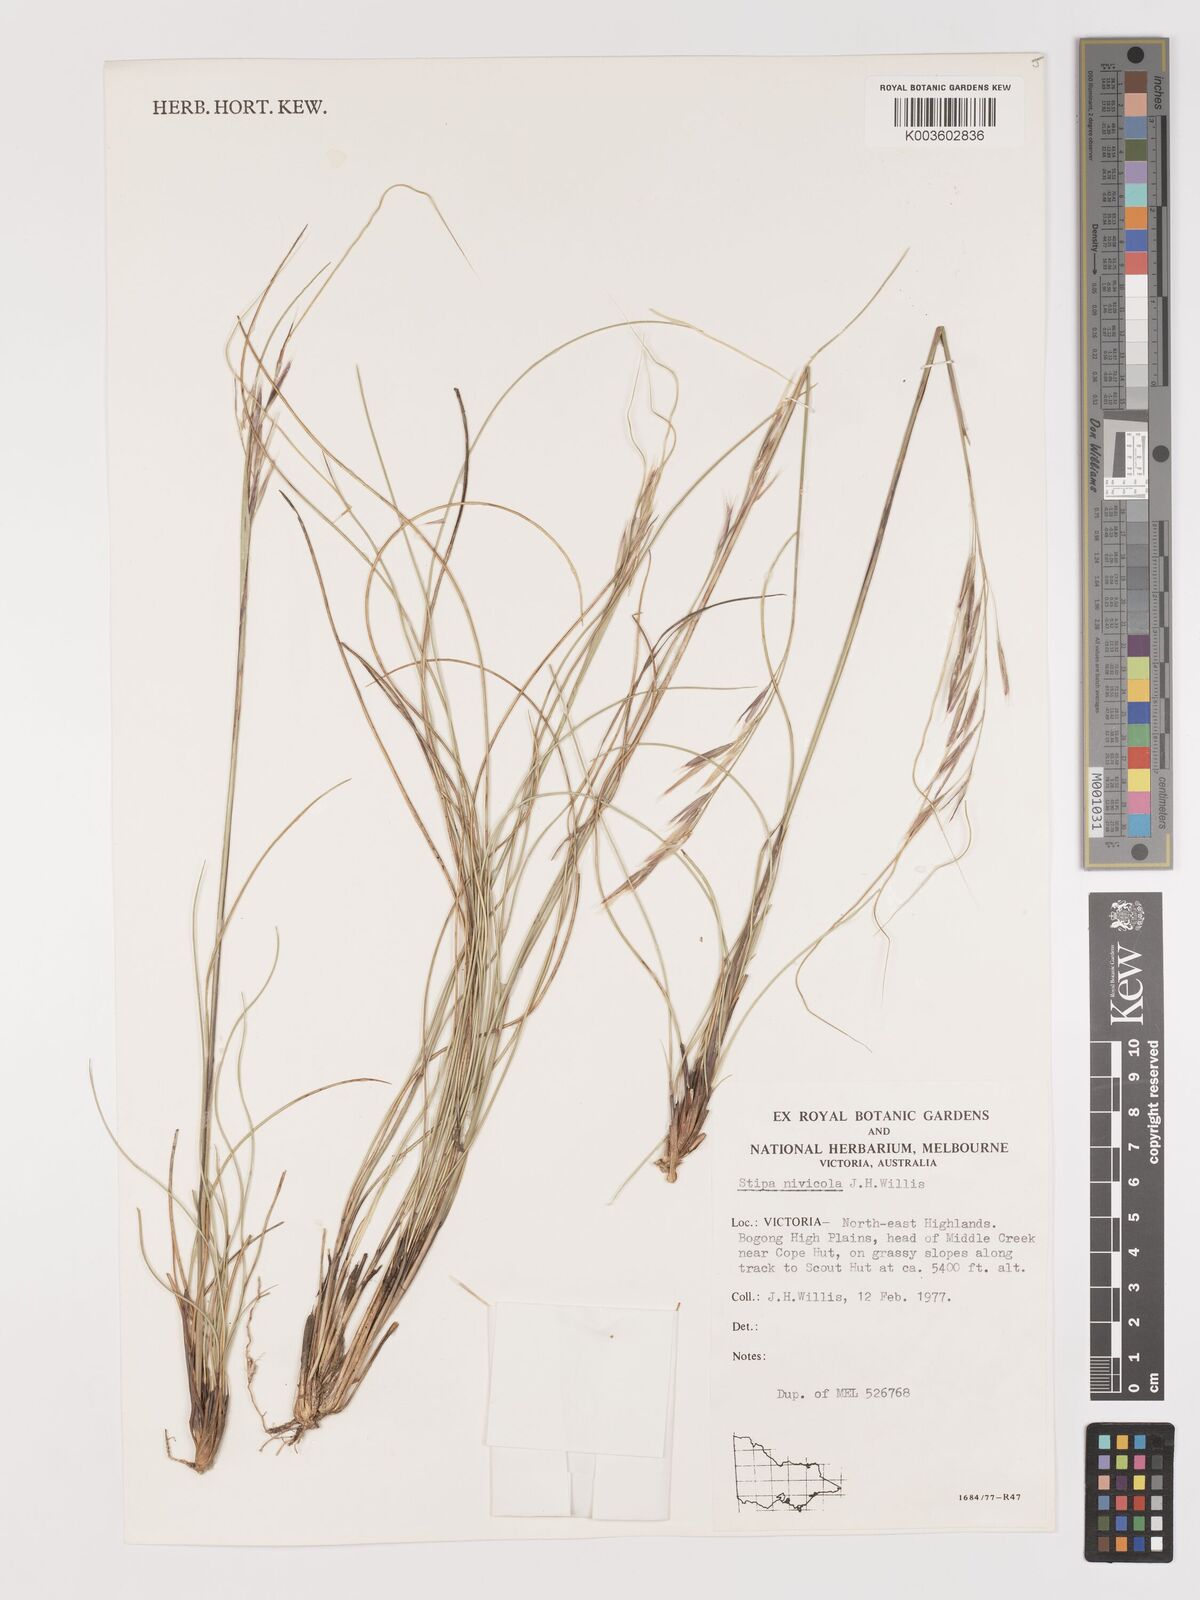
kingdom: Plantae
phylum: Tracheophyta
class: Liliopsida
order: Poales
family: Poaceae
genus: Austrostipa
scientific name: Austrostipa nivicola
